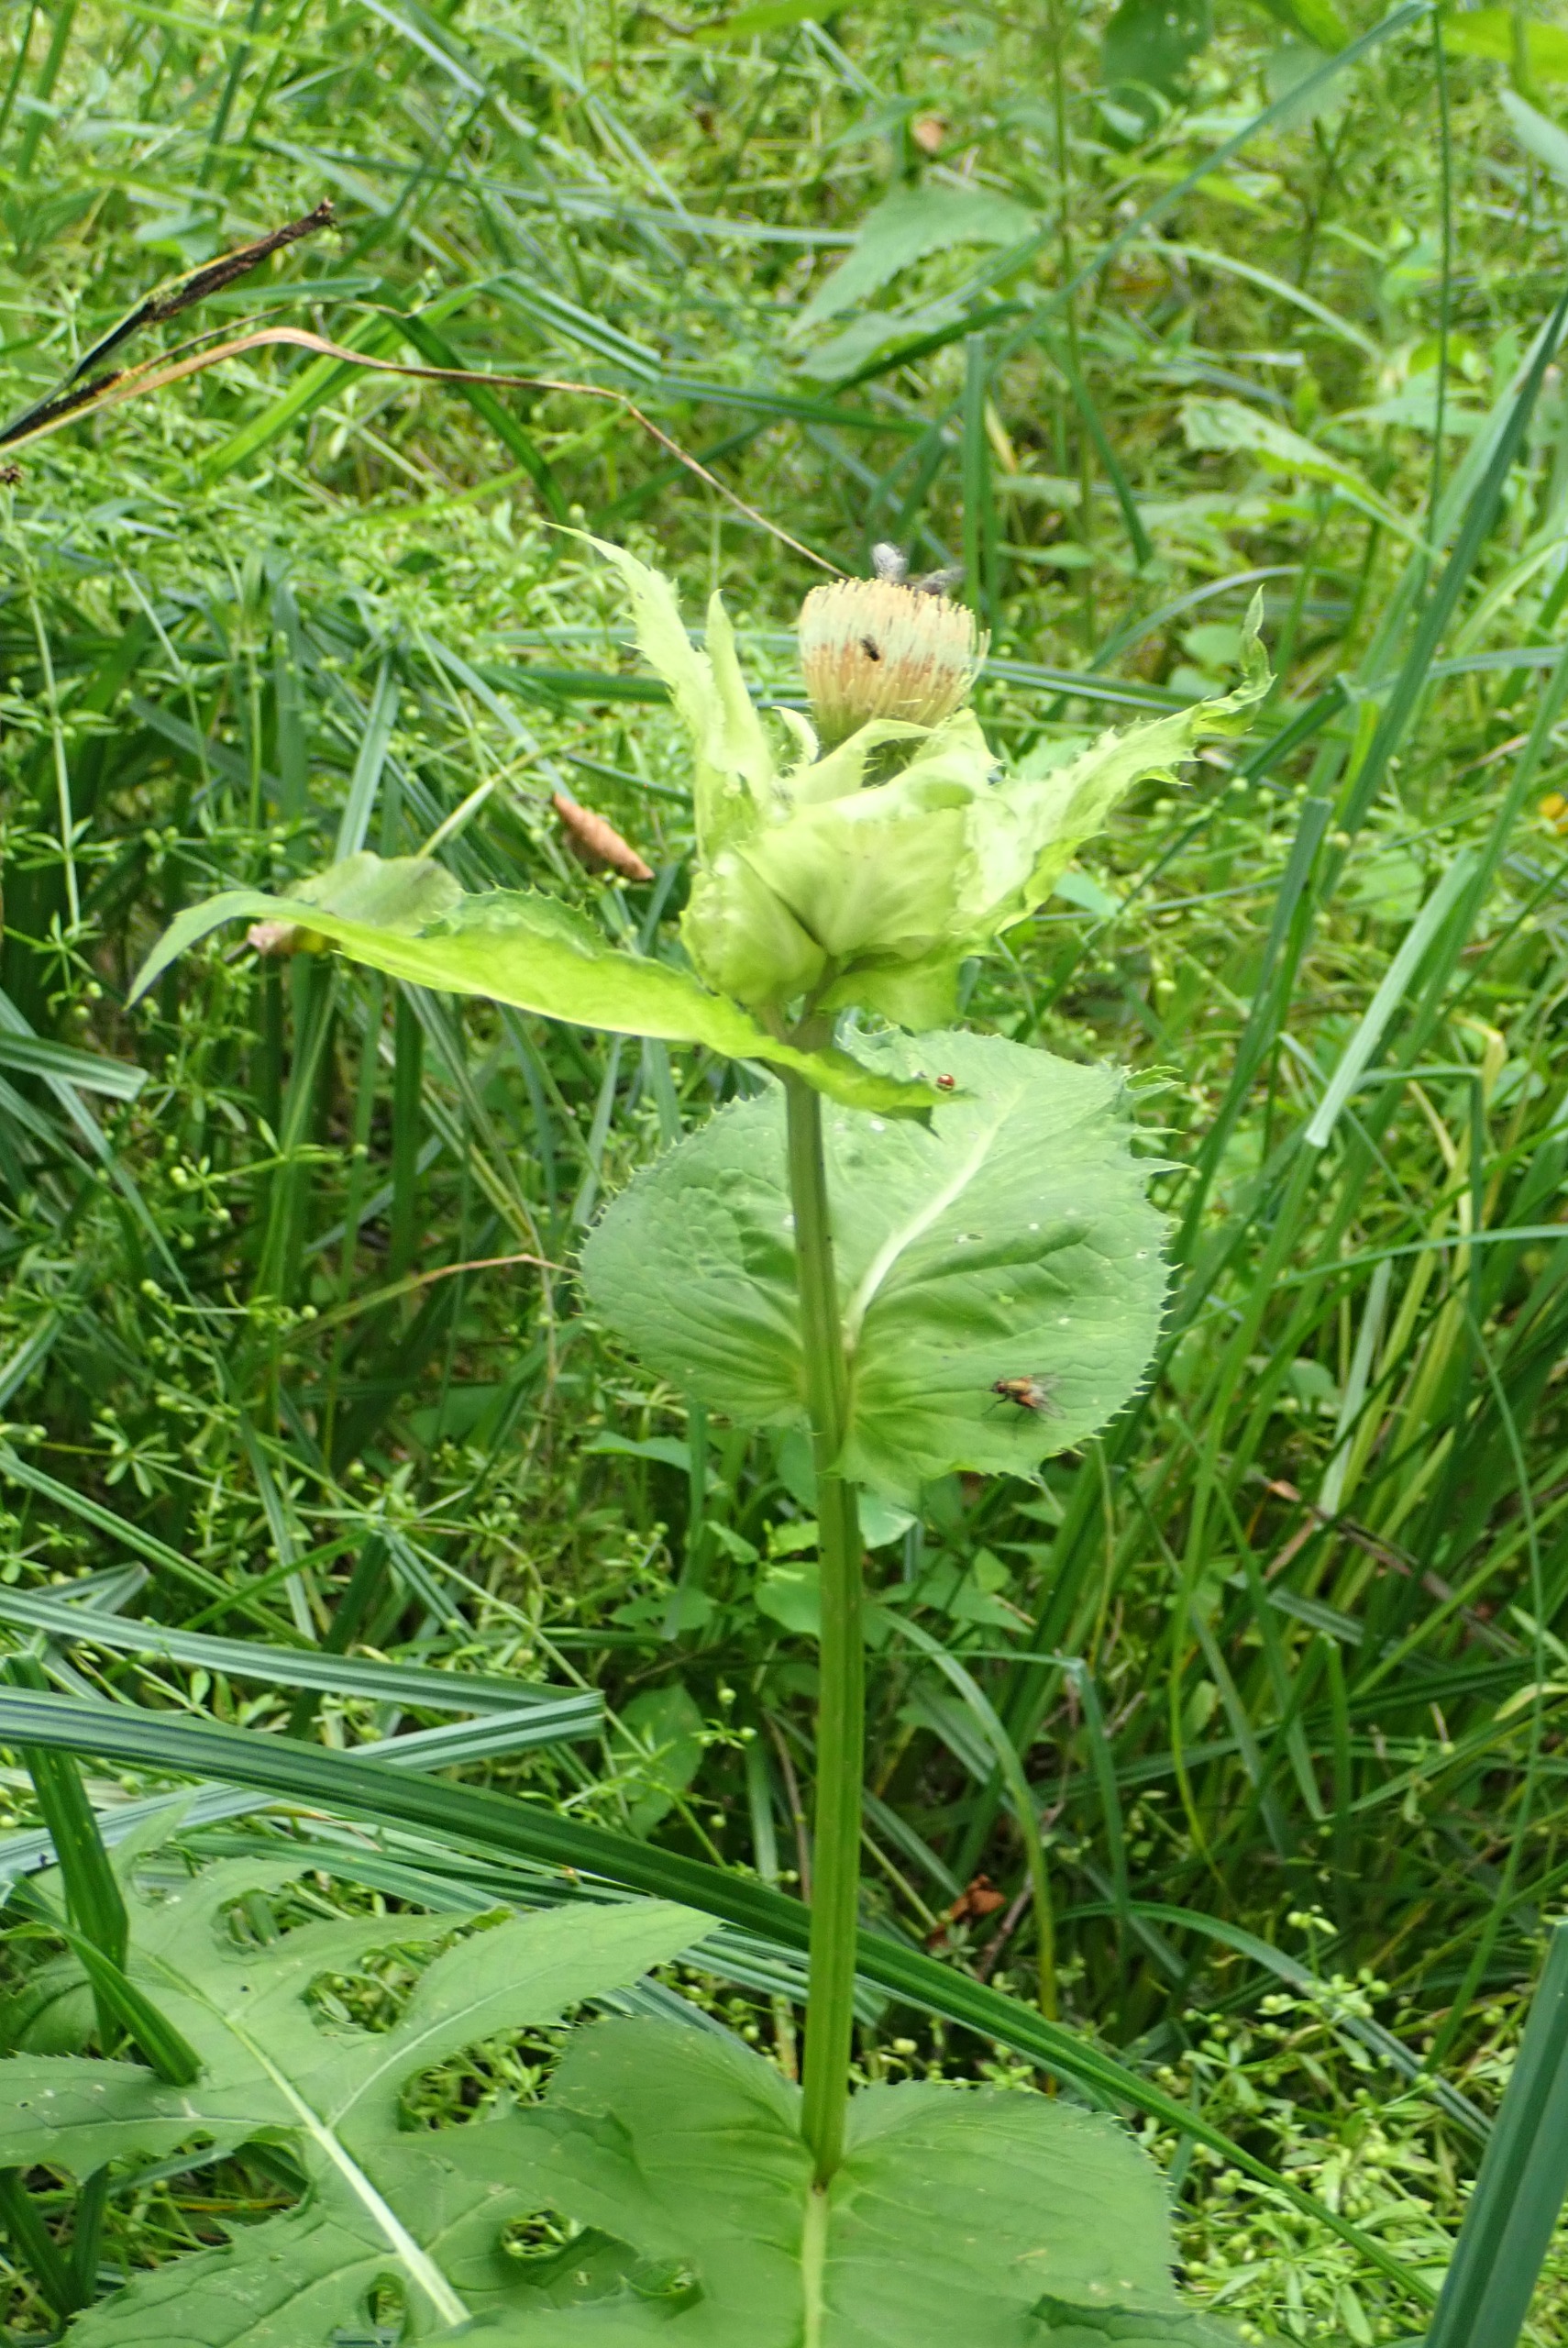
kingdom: Plantae
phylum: Tracheophyta
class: Magnoliopsida
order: Asterales
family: Asteraceae
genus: Cirsium
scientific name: Cirsium oleraceum
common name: Kål-tidsel
